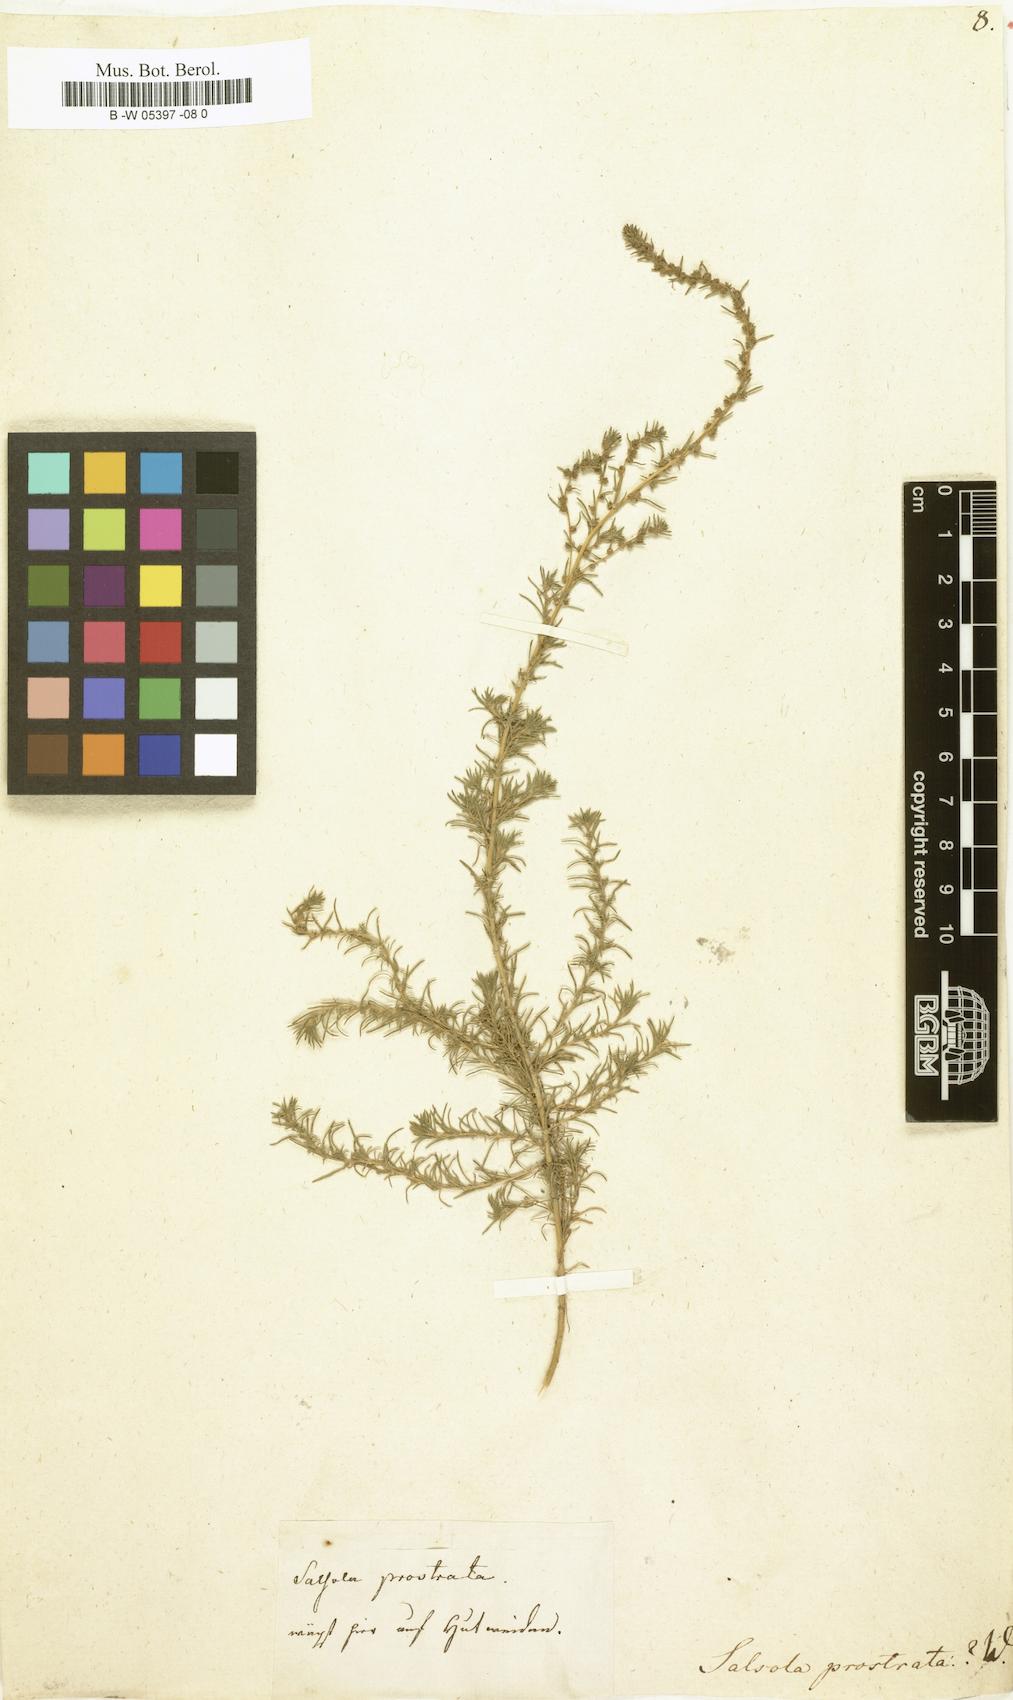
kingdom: Plantae
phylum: Tracheophyta
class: Magnoliopsida
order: Caryophyllales
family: Amaranthaceae
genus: Bassia
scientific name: Bassia prostrata
